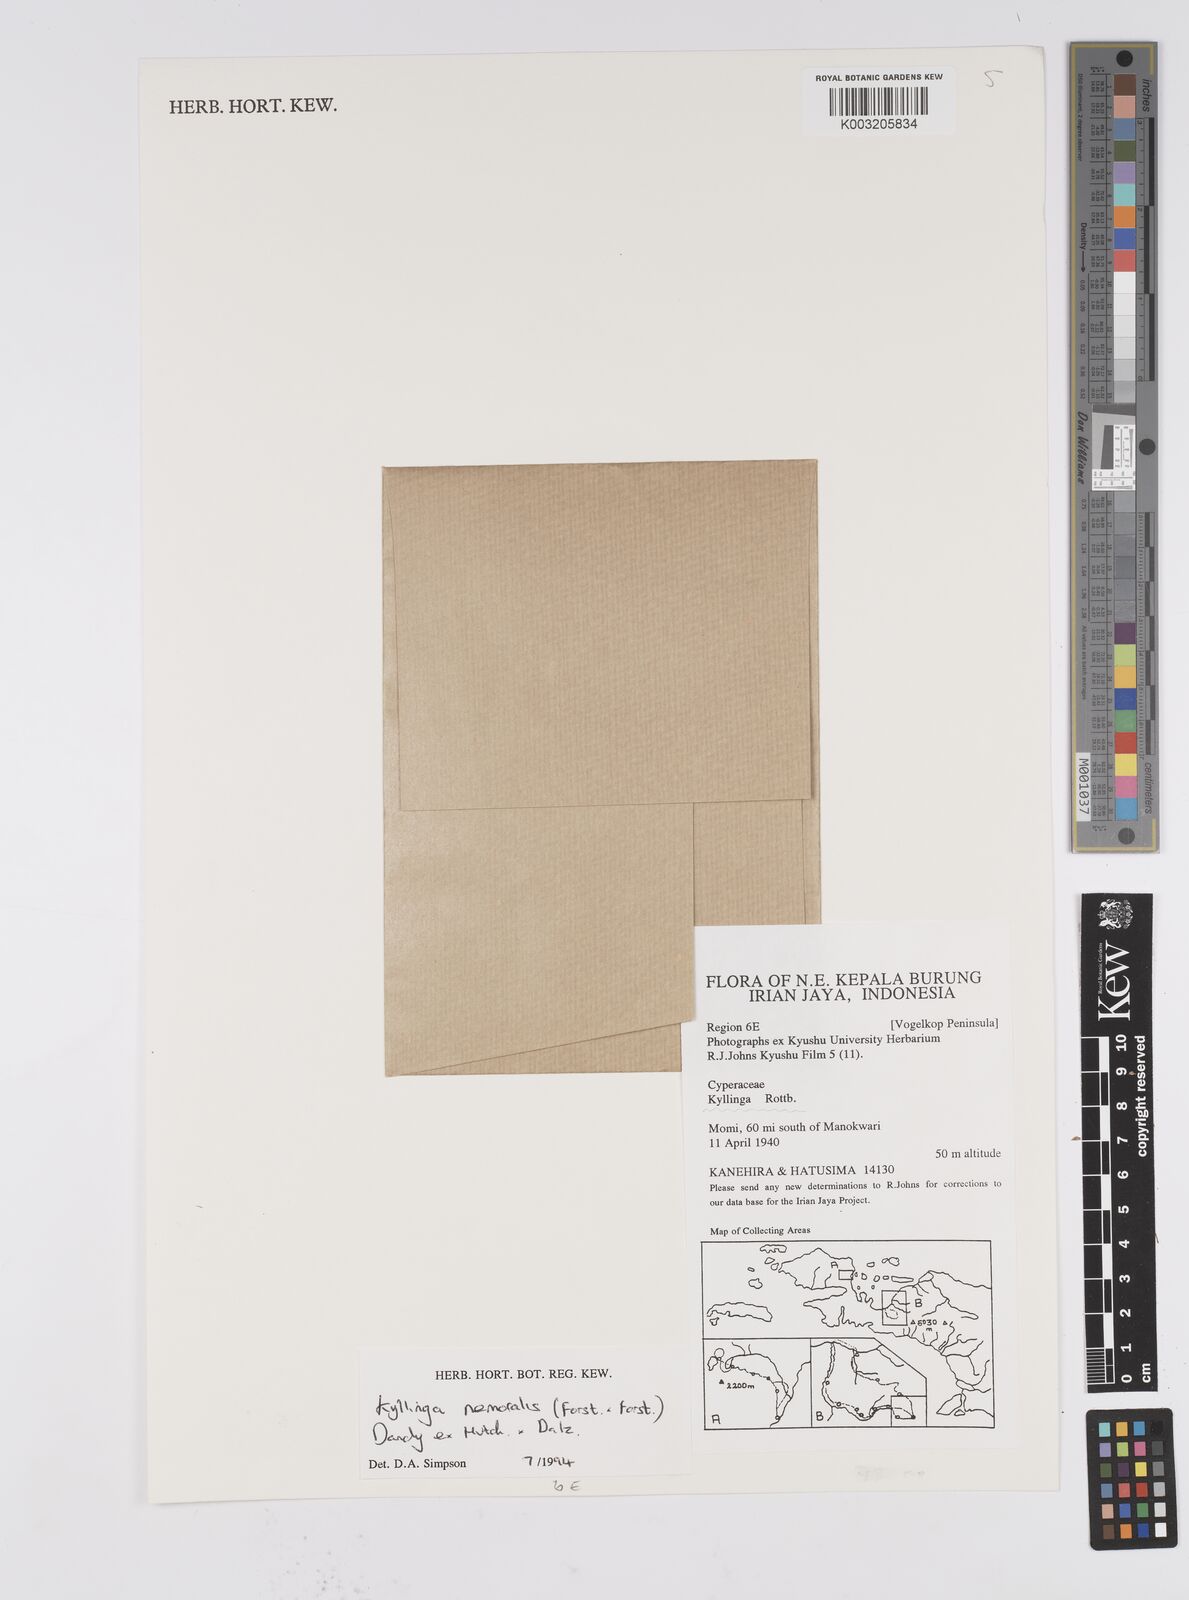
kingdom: Plantae
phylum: Tracheophyta
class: Liliopsida
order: Poales
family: Cyperaceae
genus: Cyperus
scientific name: Cyperus brevifolius
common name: Globe kyllinga
